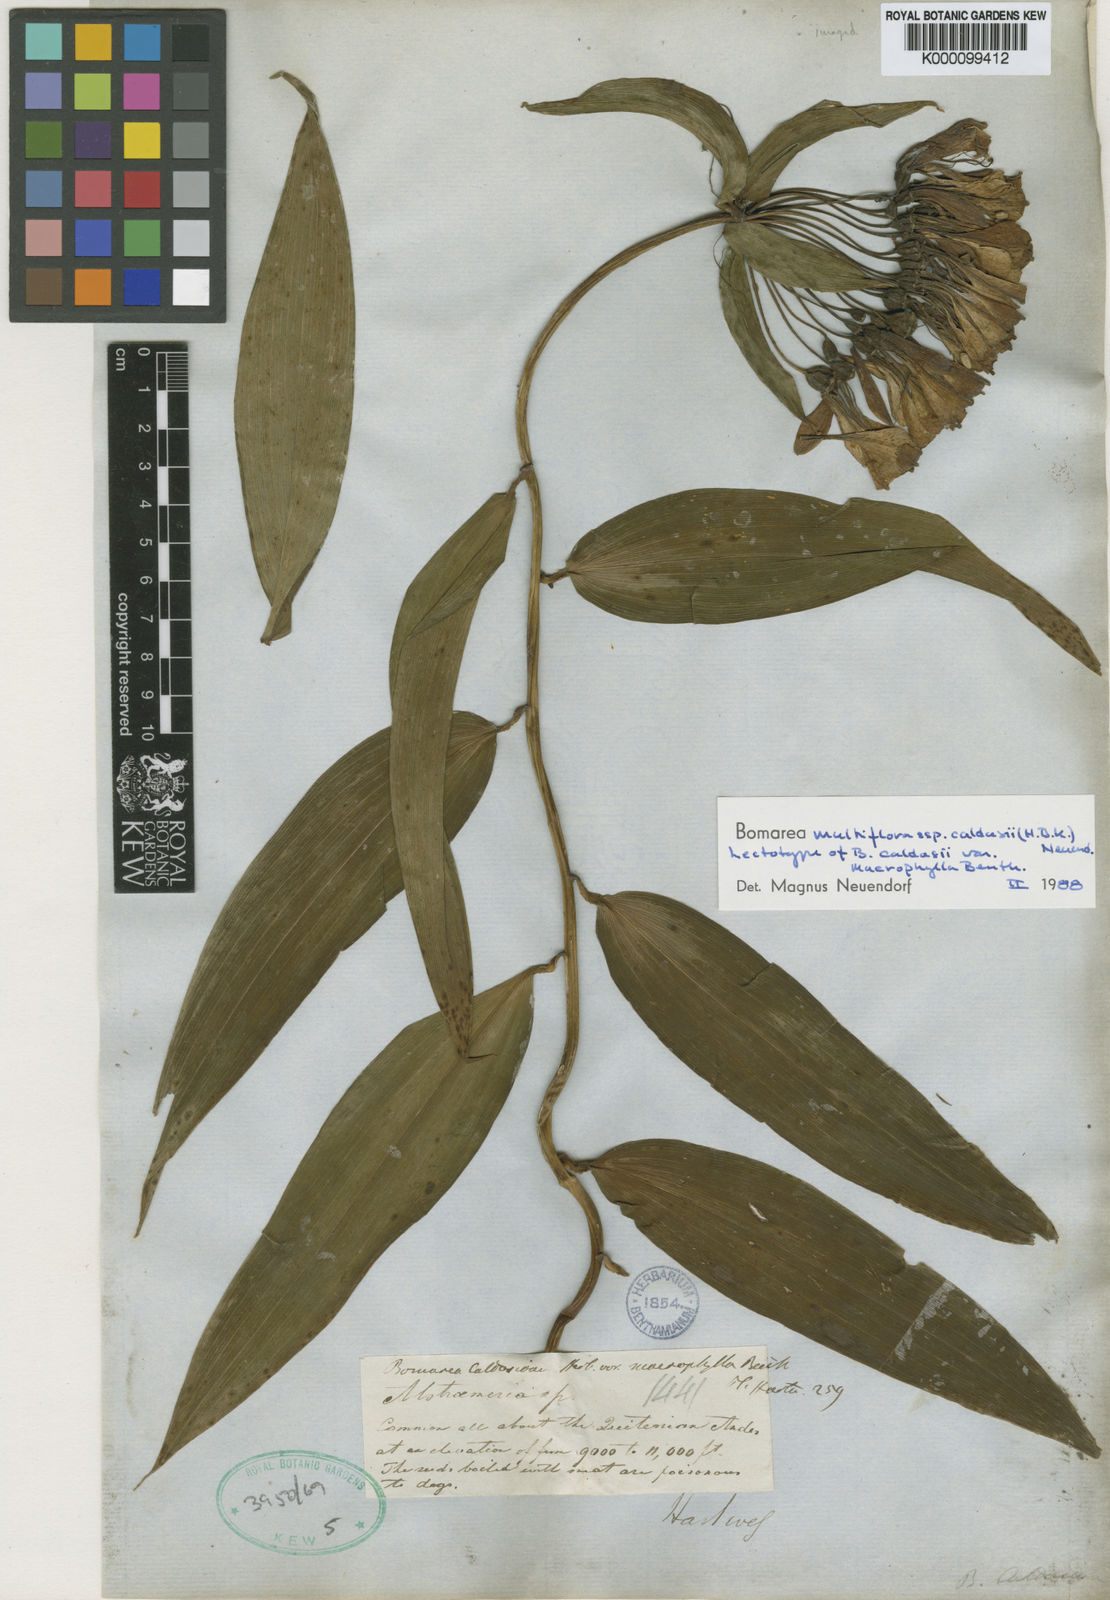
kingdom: Plantae
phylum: Tracheophyta
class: Liliopsida
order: Liliales
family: Alstroemeriaceae
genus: Bomarea
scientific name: Bomarea multiflora
